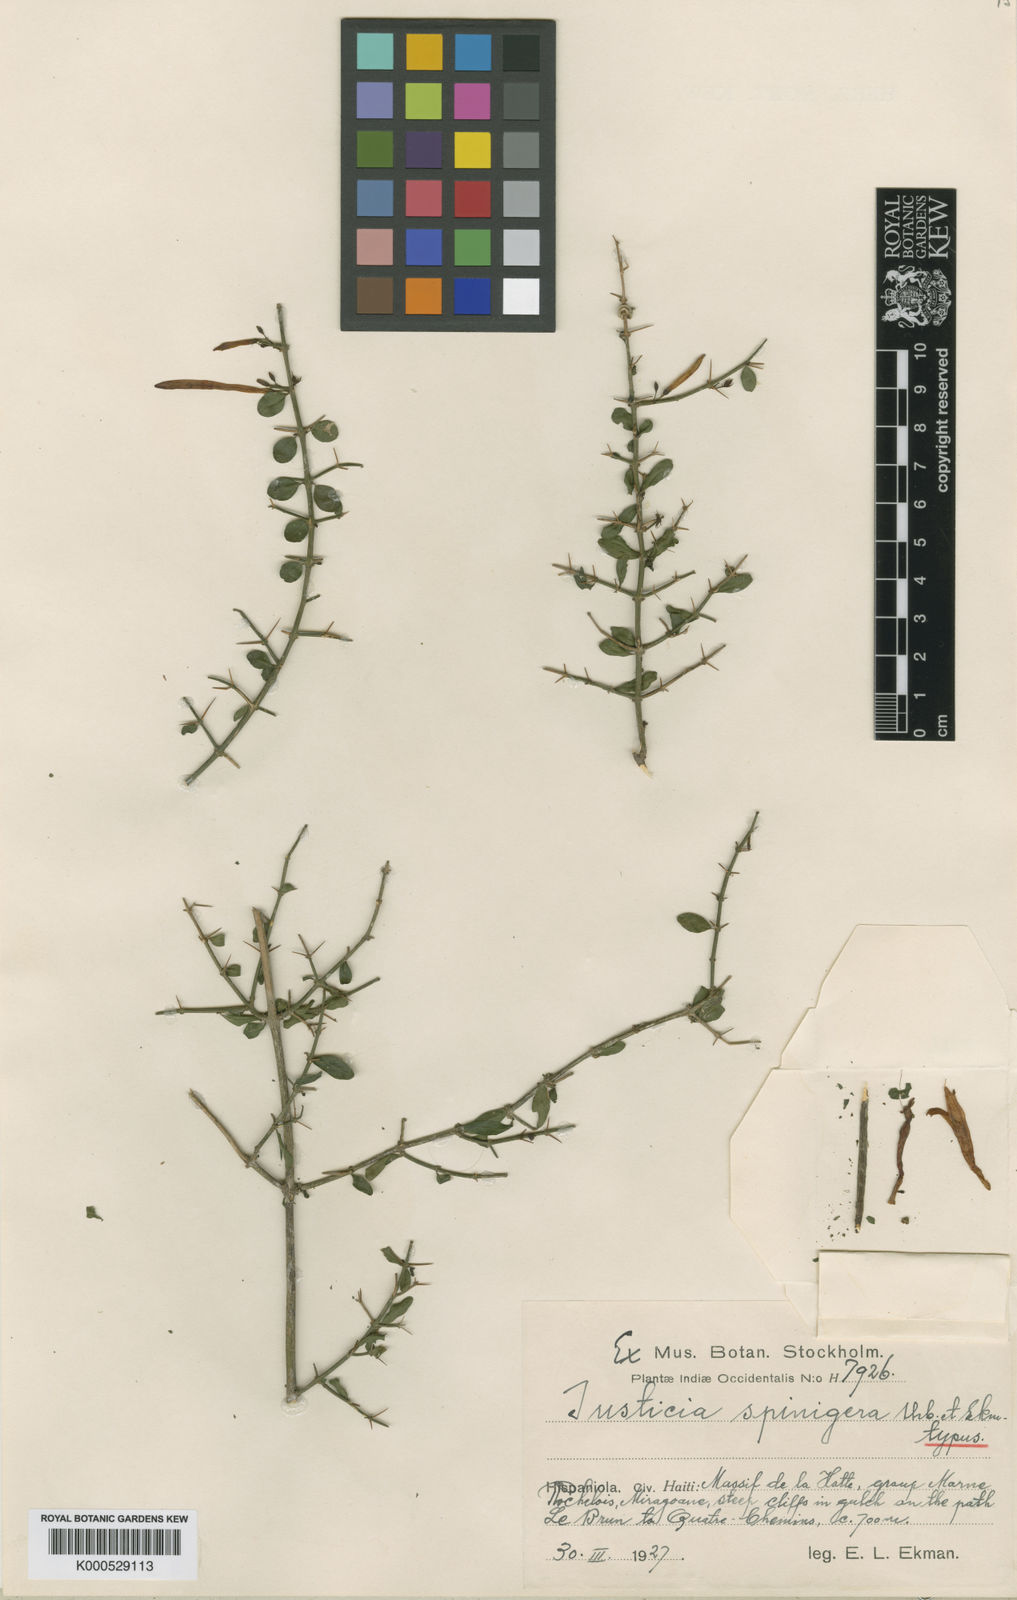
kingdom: Plantae
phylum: Tracheophyta
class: Magnoliopsida
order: Lamiales
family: Acanthaceae
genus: Justicia
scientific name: Justicia spinigera
